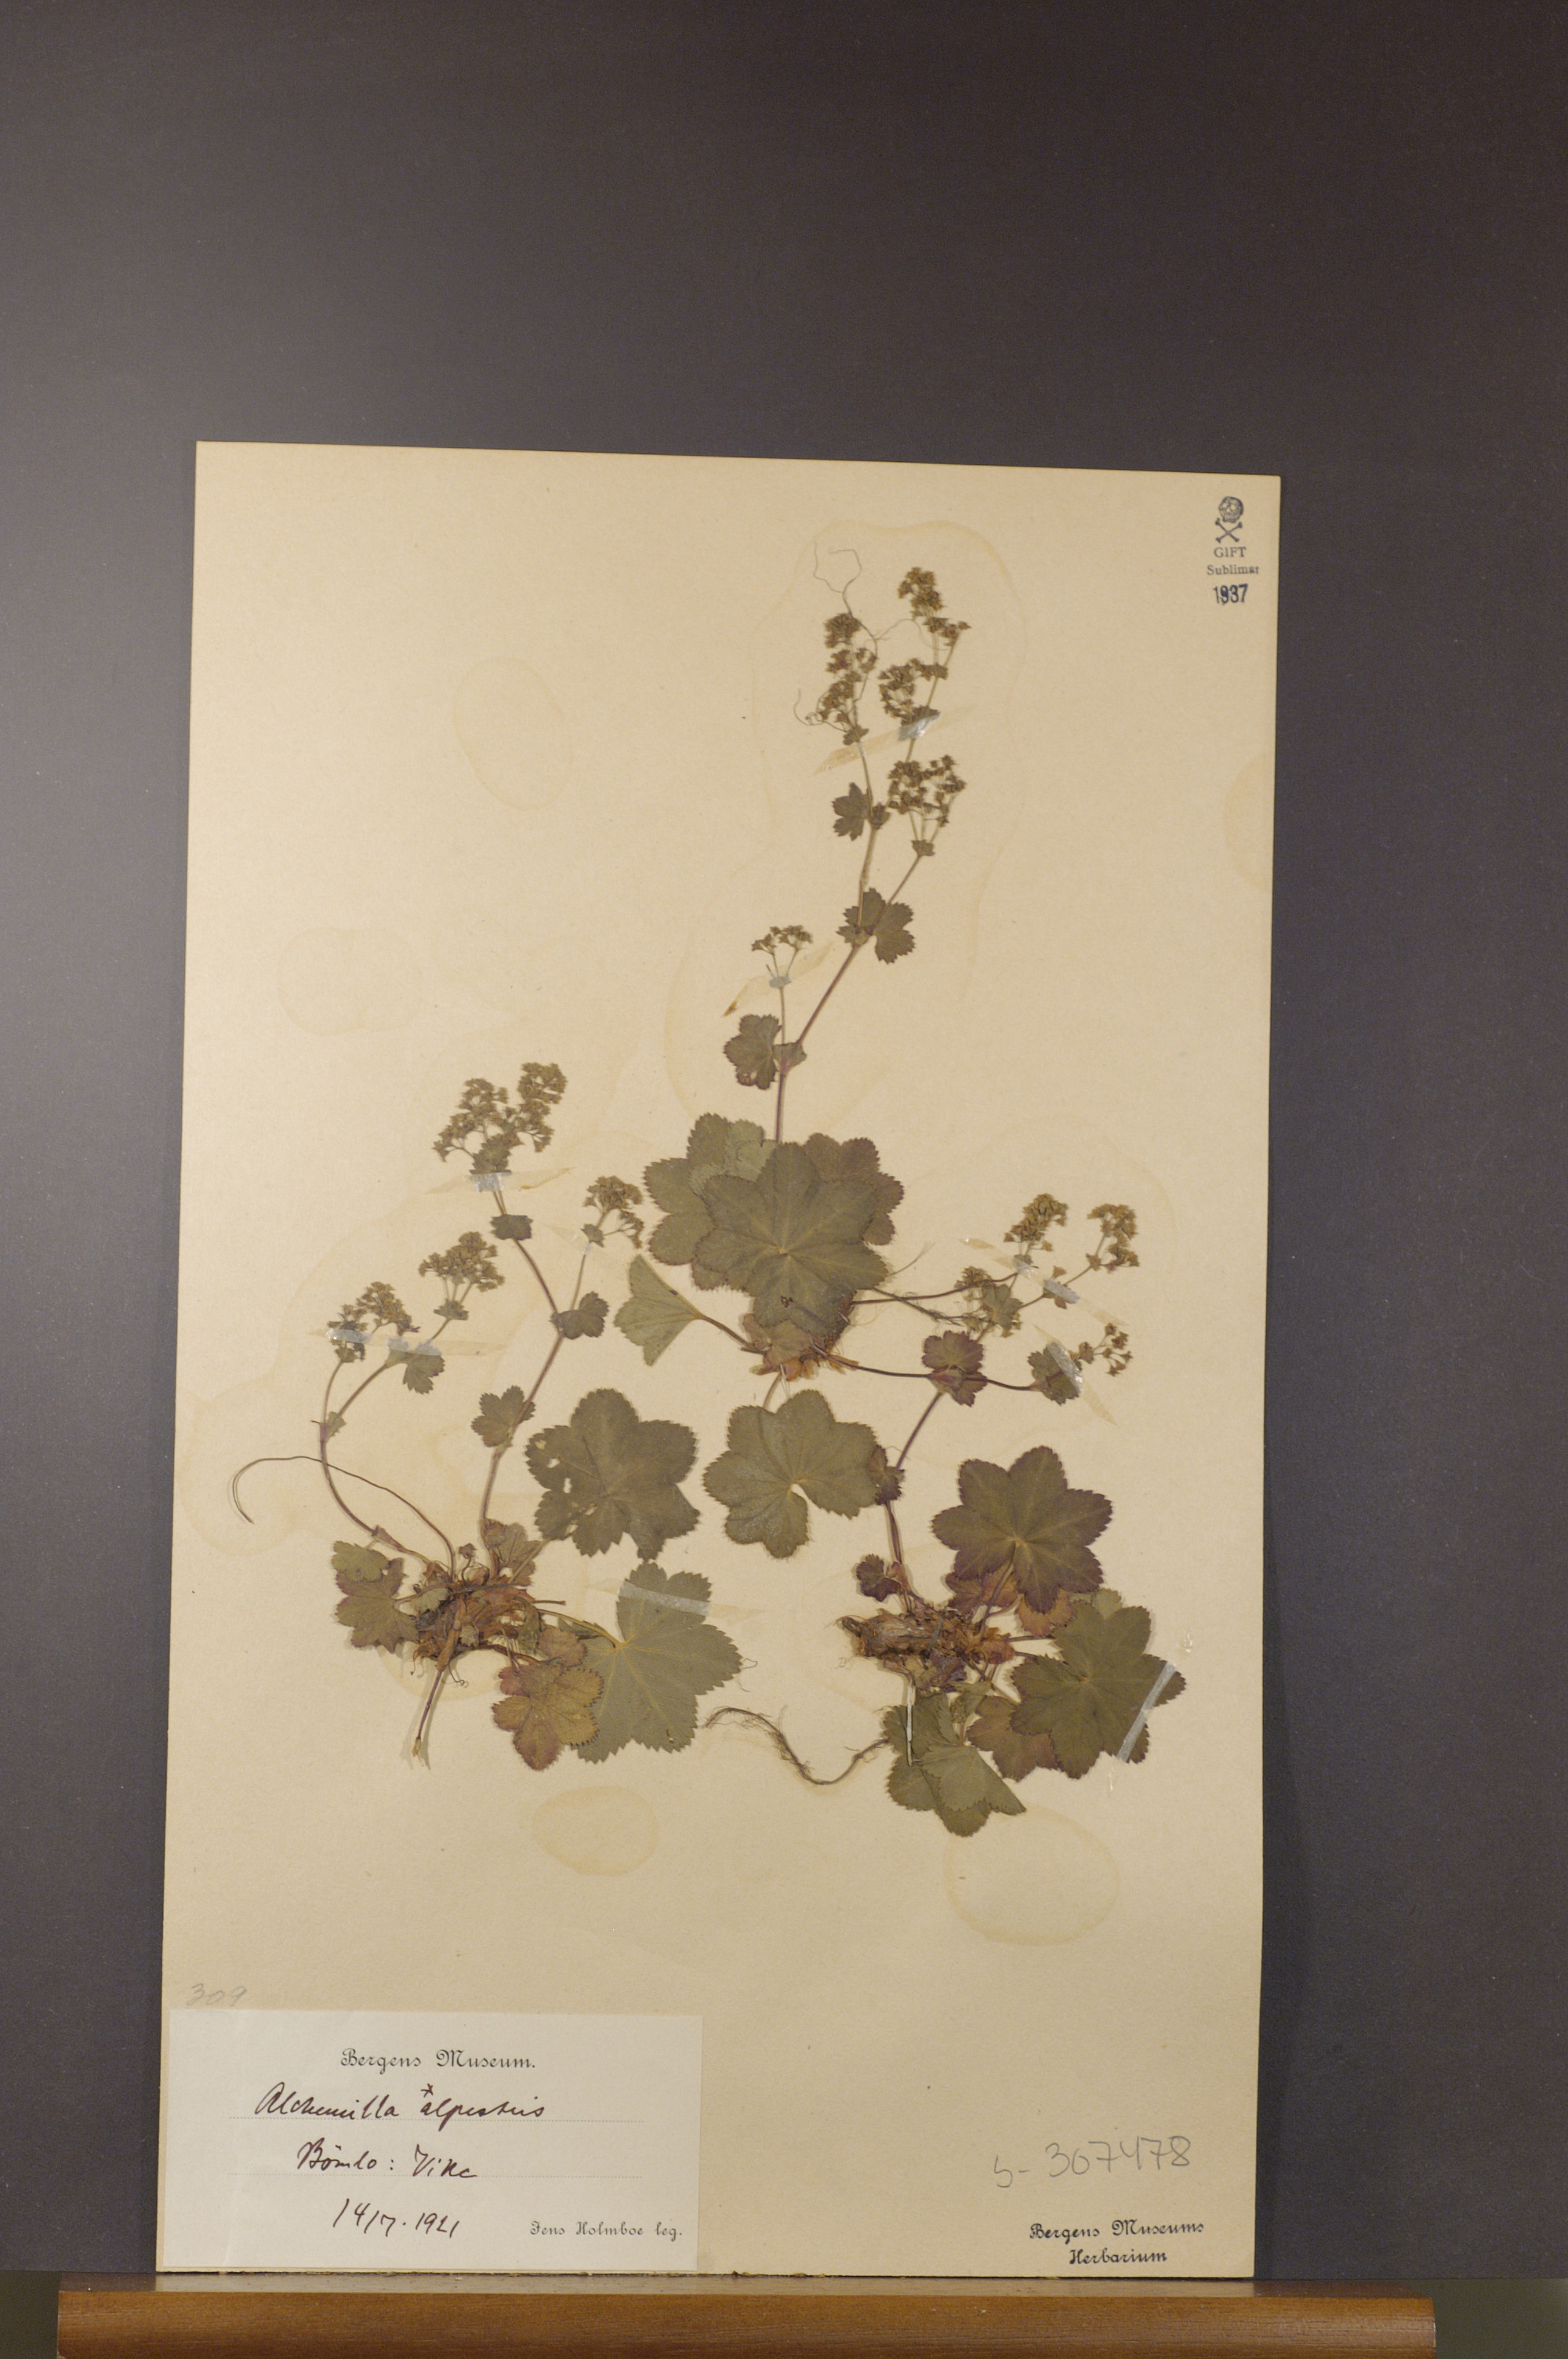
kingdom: Plantae
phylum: Tracheophyta
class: Magnoliopsida
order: Rosales
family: Rosaceae
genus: Alchemilla
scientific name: Alchemilla glabra
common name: Smooth lady's-mantle
